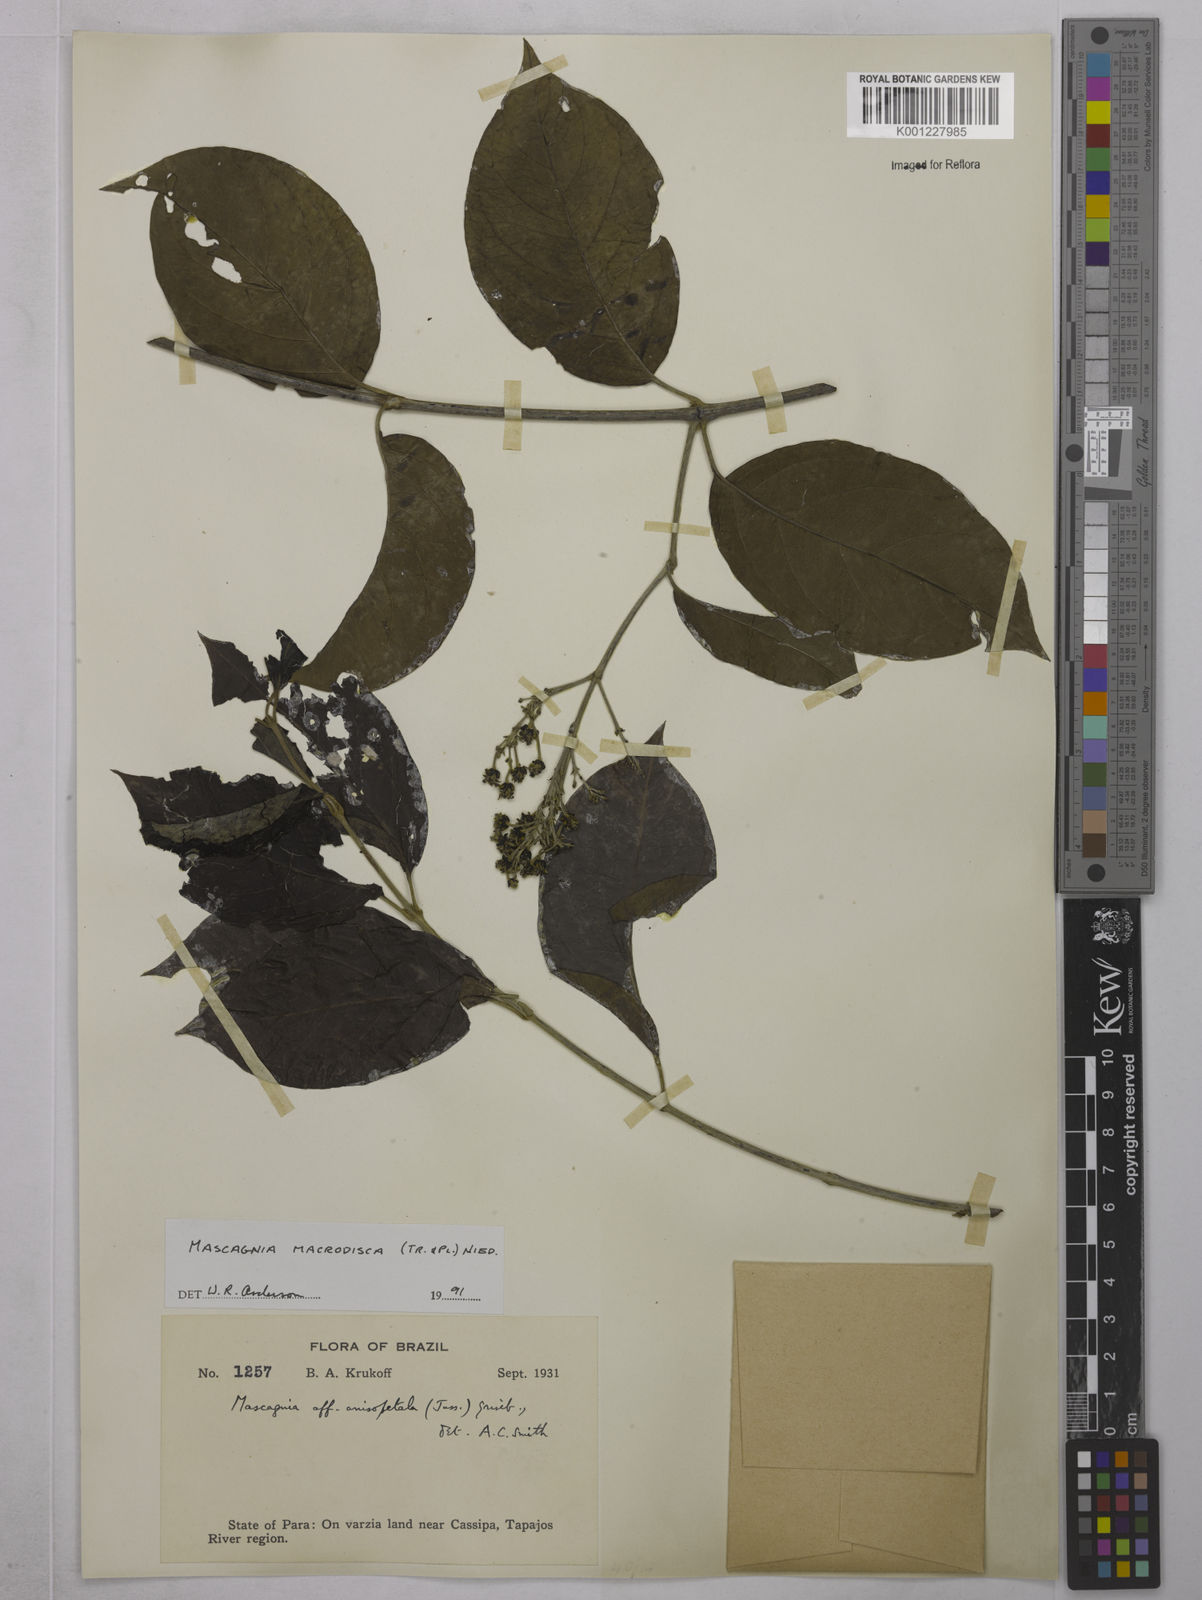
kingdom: Plantae
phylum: Tracheophyta
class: Magnoliopsida
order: Malpighiales
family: Malpighiaceae
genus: Alicia
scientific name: Alicia
